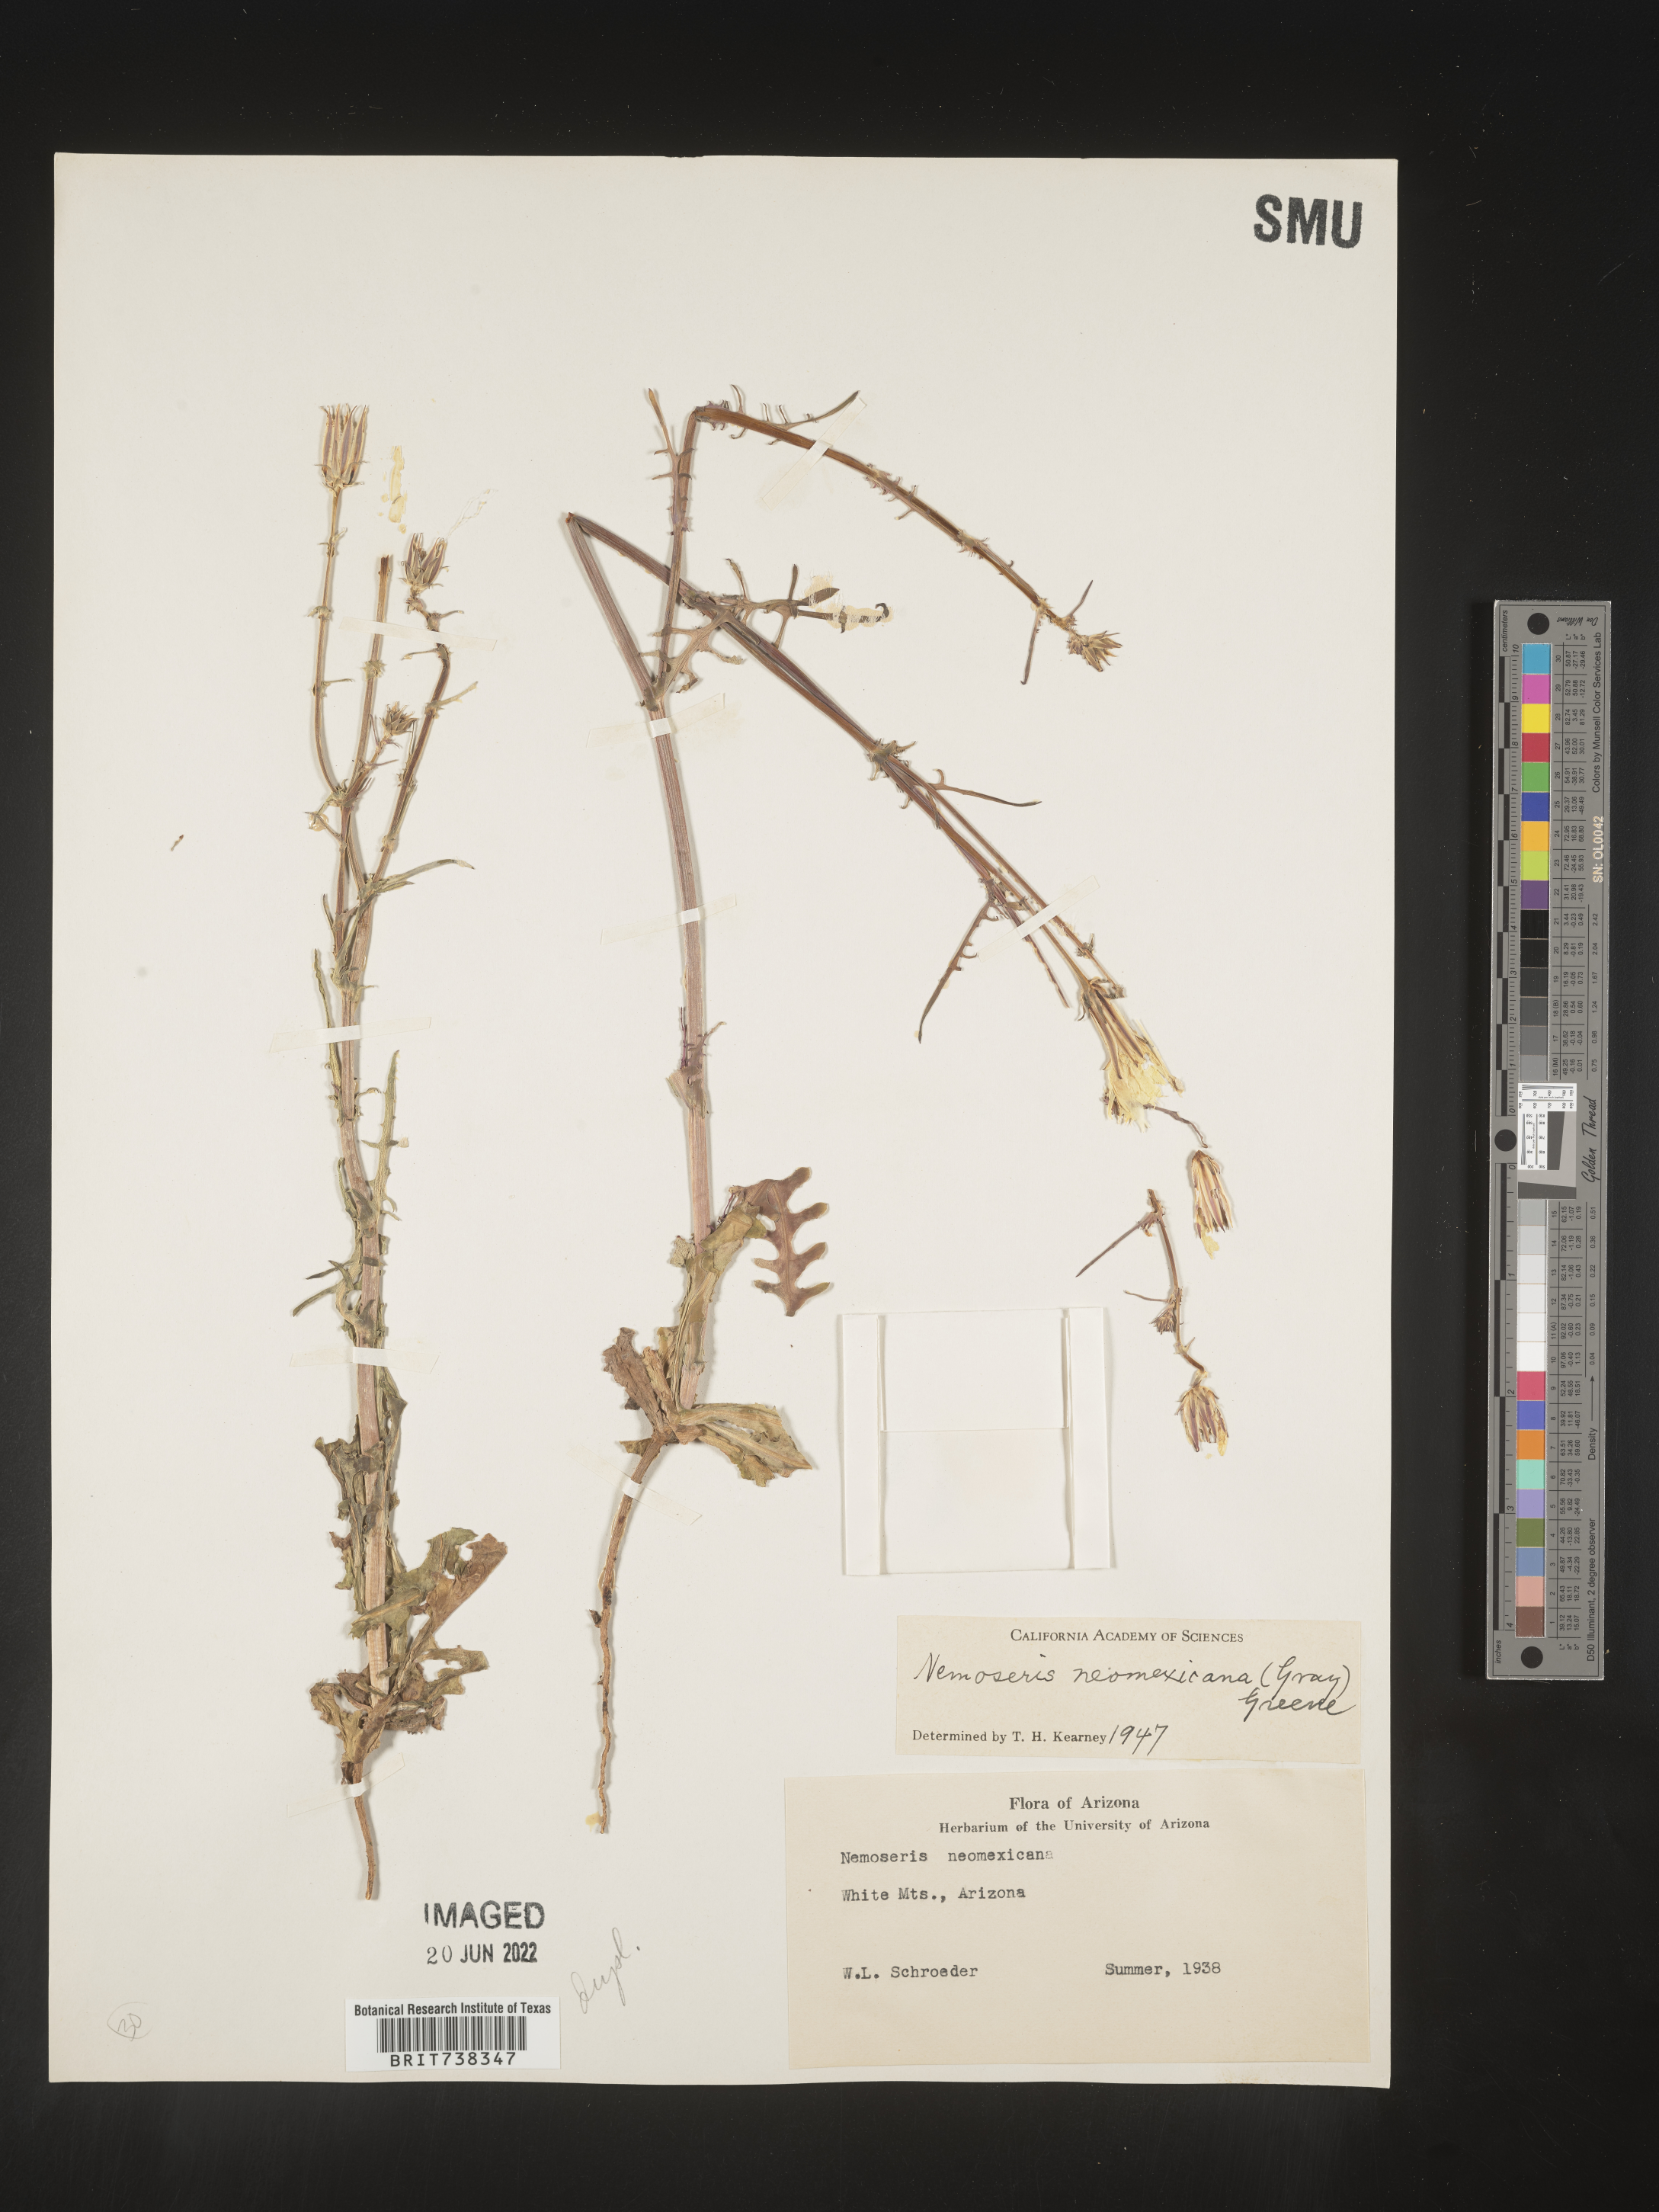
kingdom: Plantae
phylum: Tracheophyta
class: Magnoliopsida
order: Asterales
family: Asteraceae
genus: Rafinesquia
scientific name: Rafinesquia
